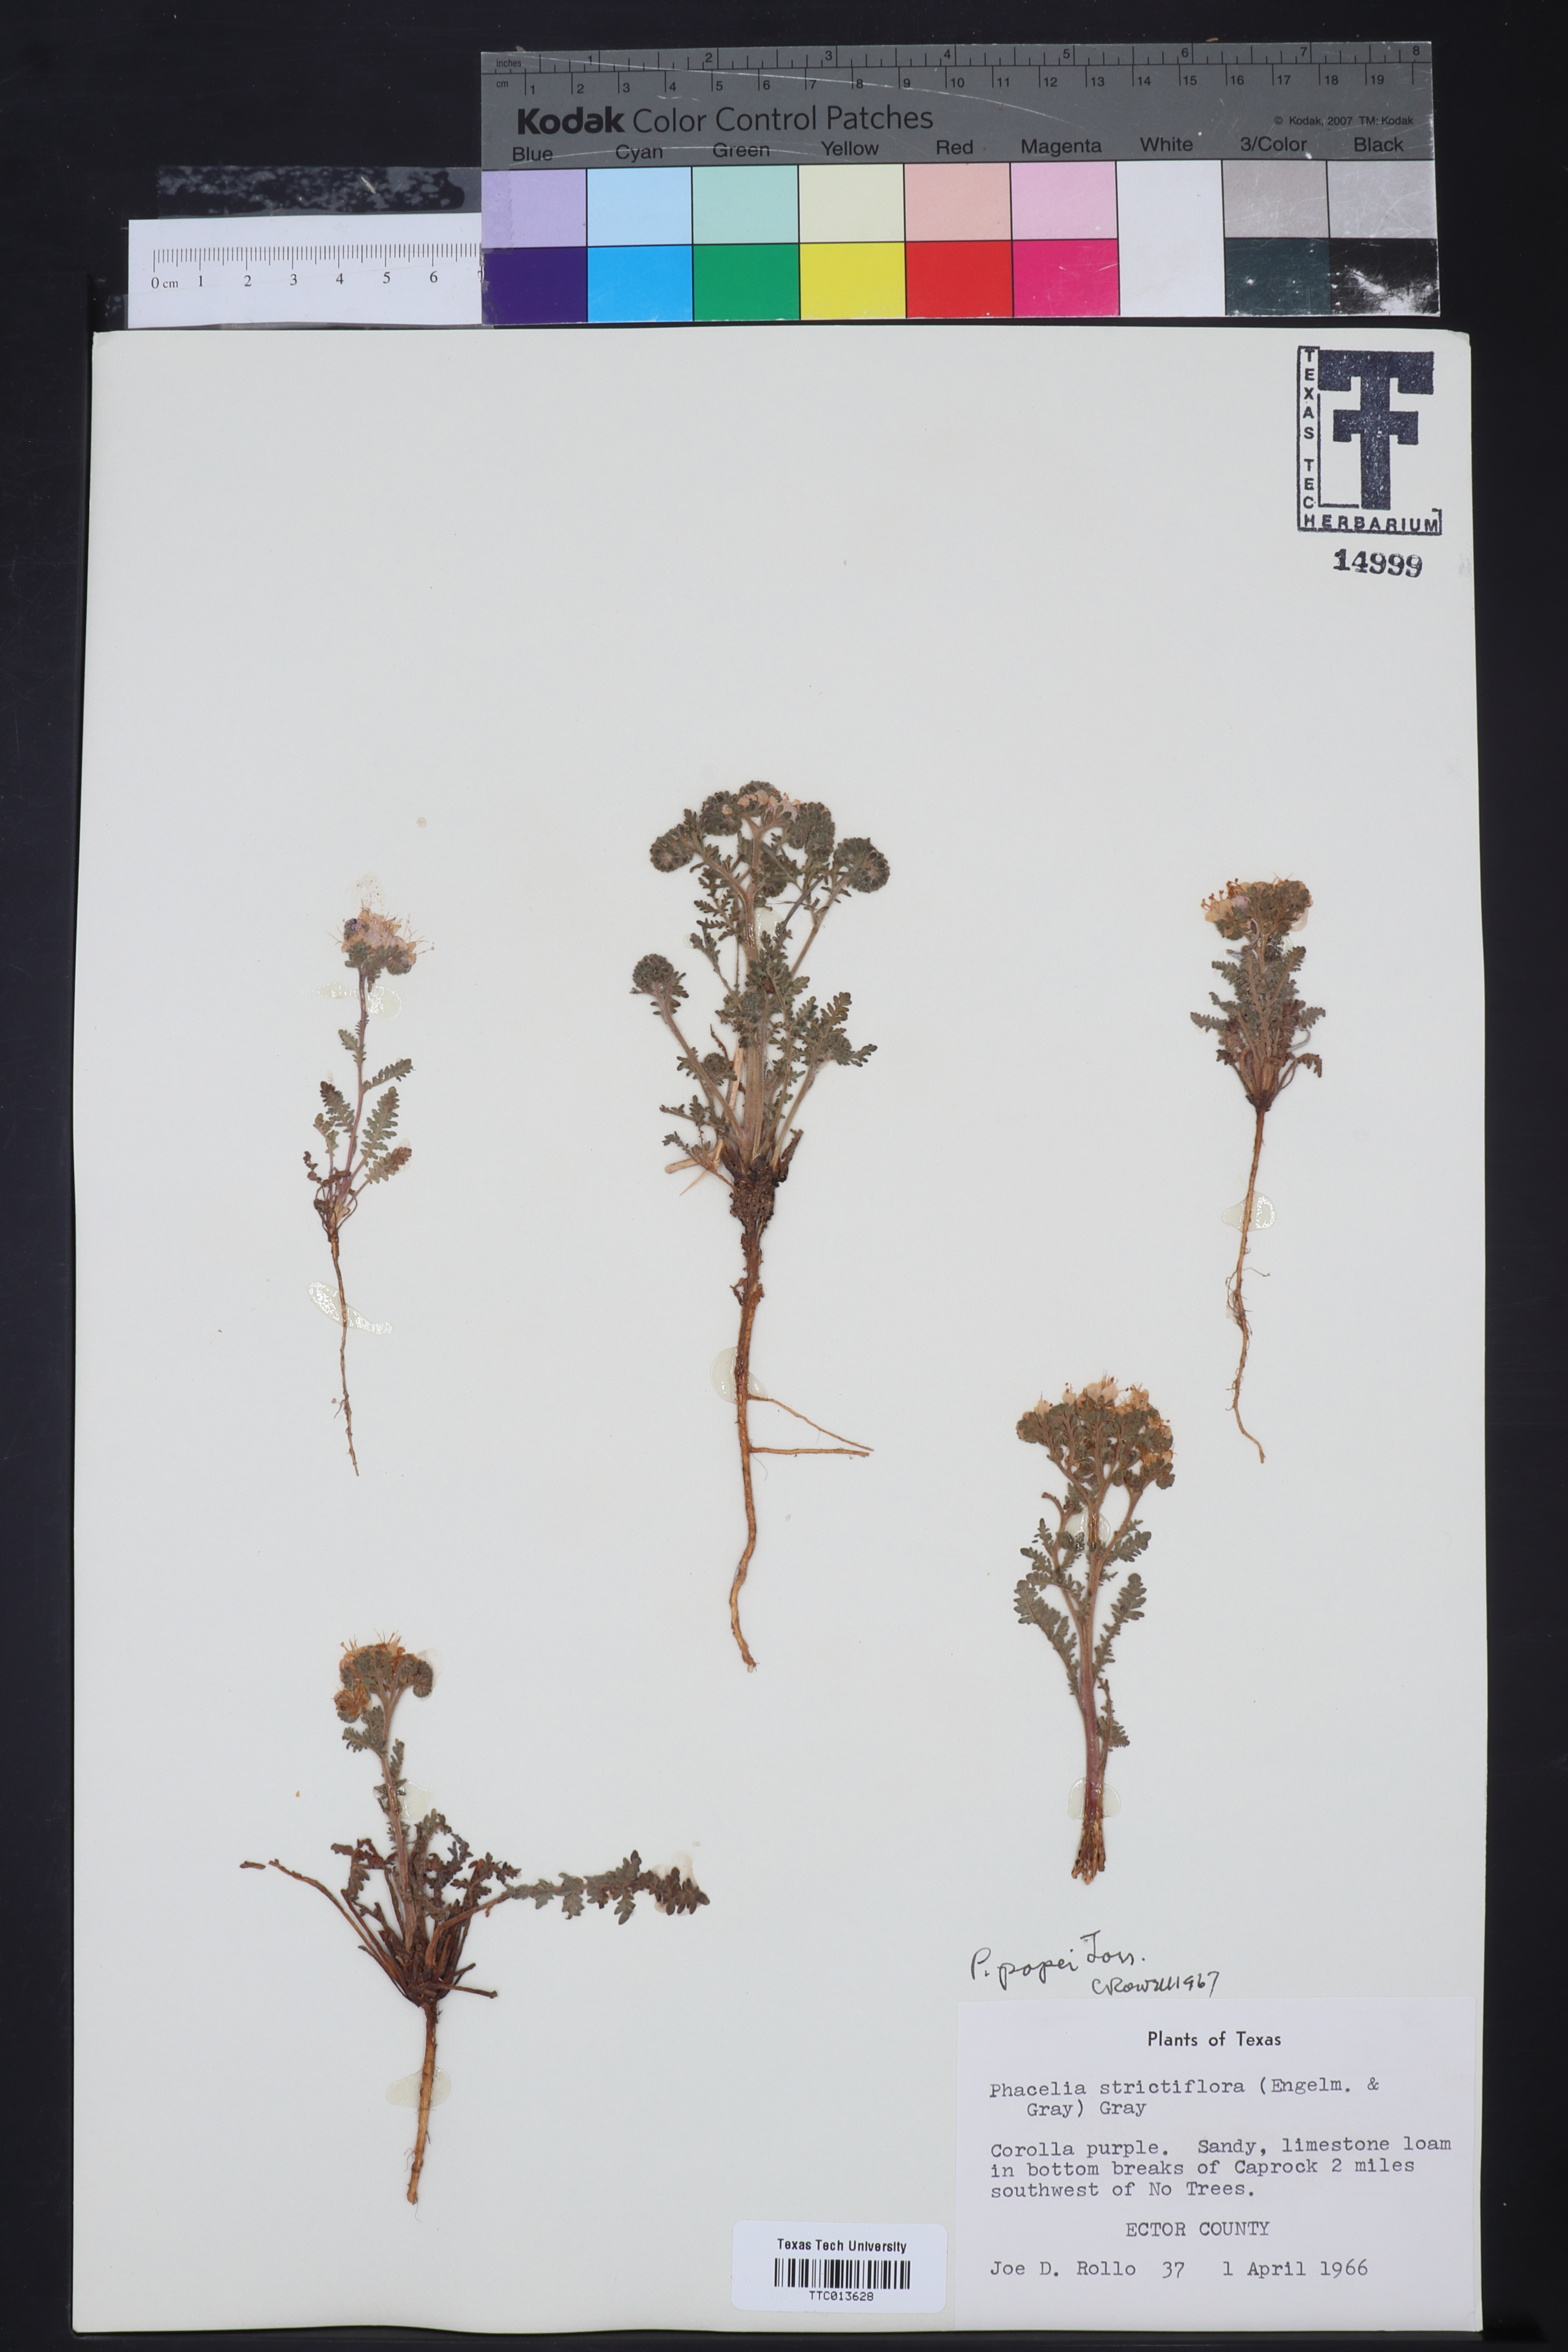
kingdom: Plantae
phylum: Tracheophyta
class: Magnoliopsida
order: Boraginales
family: Hydrophyllaceae
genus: Phacelia
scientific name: Phacelia popei
